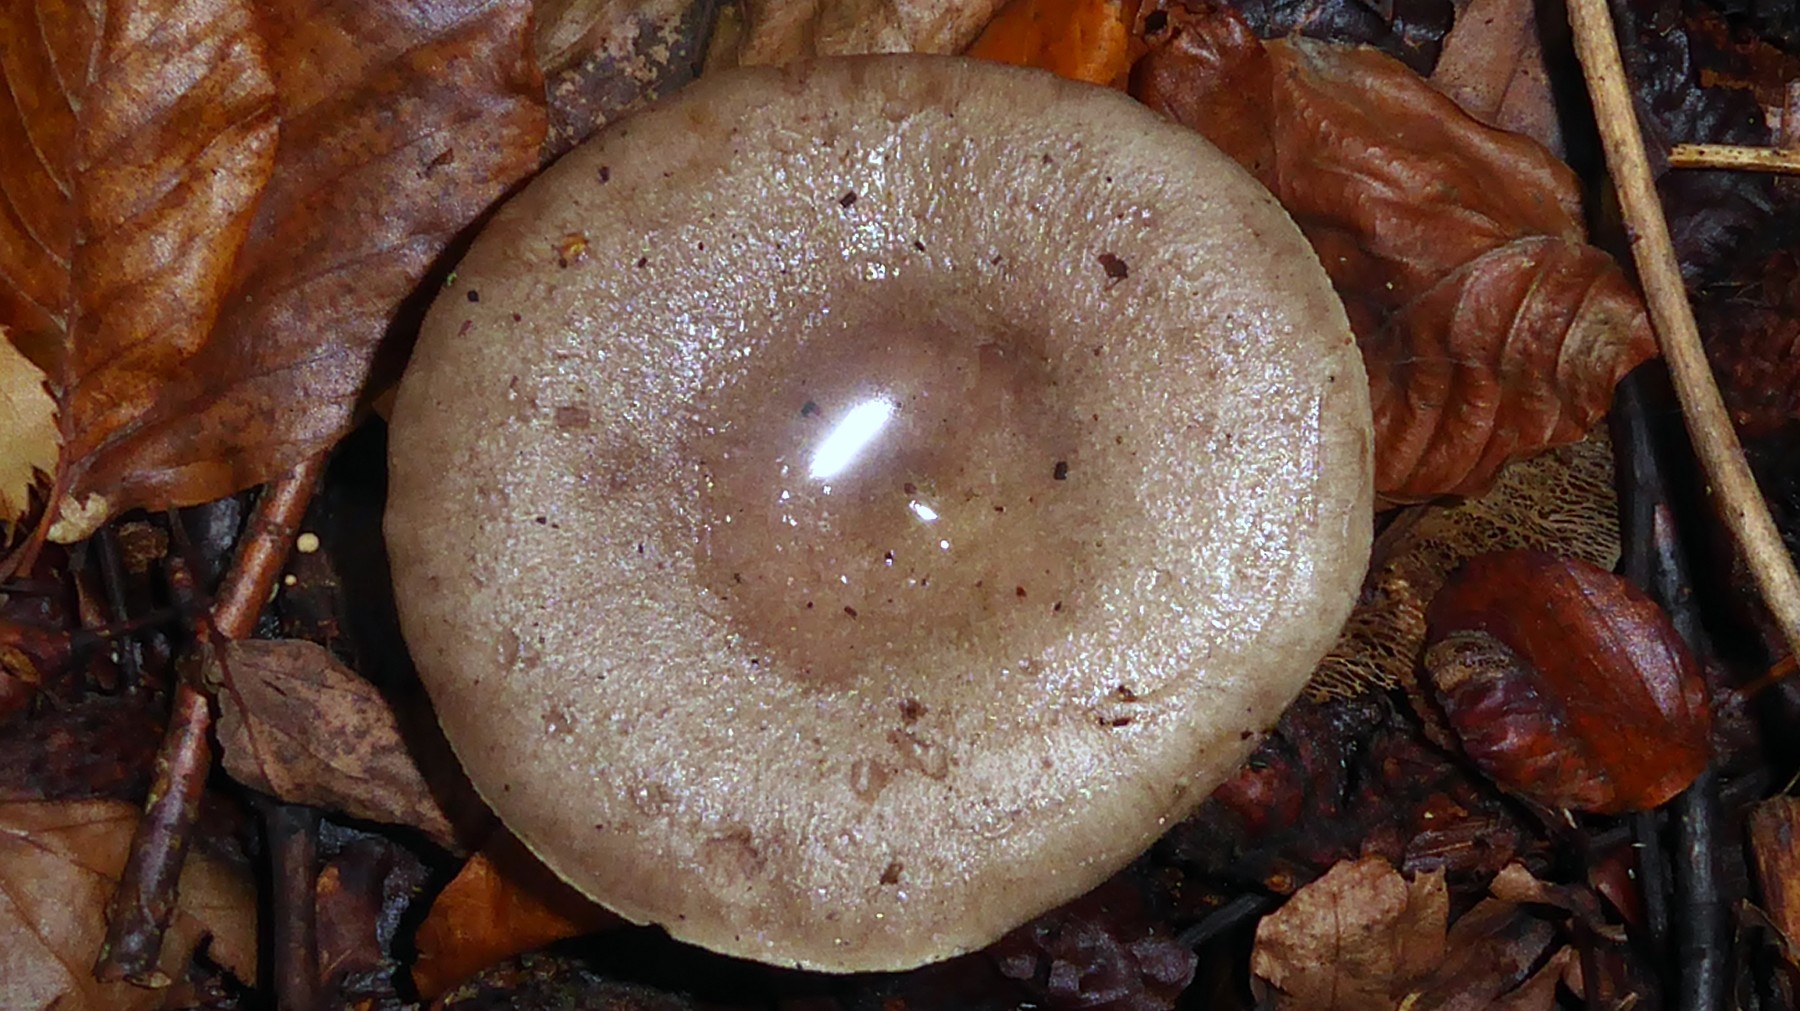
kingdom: Fungi
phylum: Basidiomycota
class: Agaricomycetes
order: Russulales
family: Russulaceae
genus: Lactarius
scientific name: Lactarius blennius
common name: dråbeplettet mælkehat
